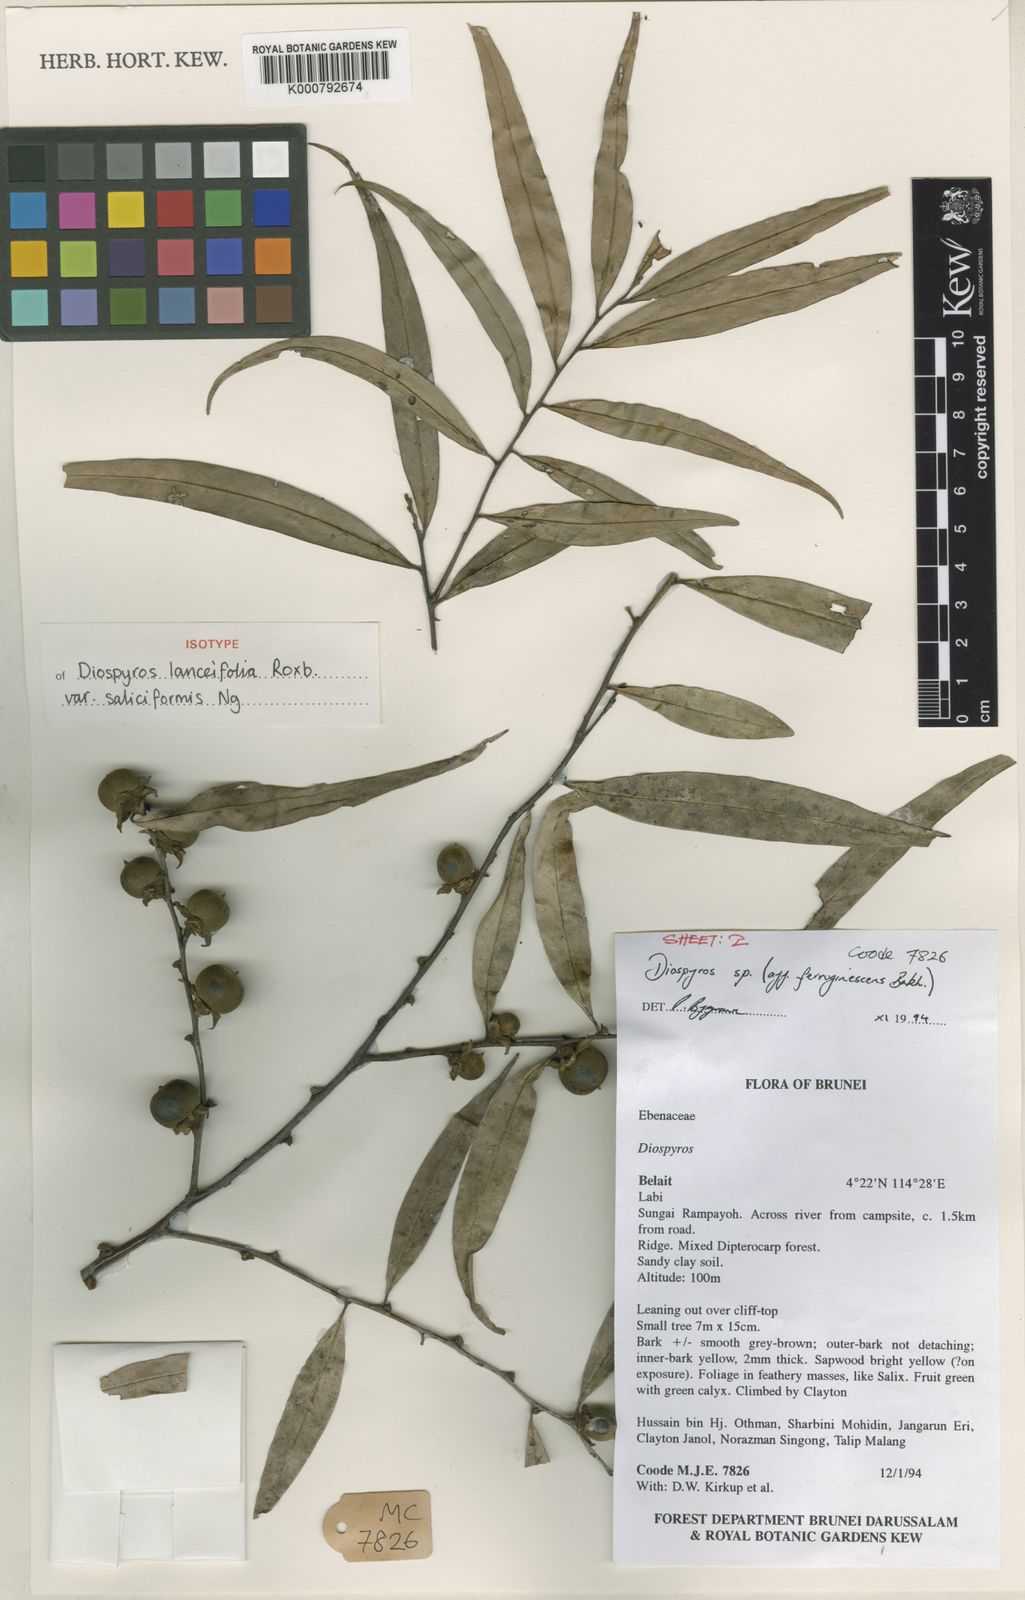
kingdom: Plantae
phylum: Tracheophyta
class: Magnoliopsida
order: Ericales
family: Ebenaceae
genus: Diospyros
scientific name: Diospyros lanceifolia
